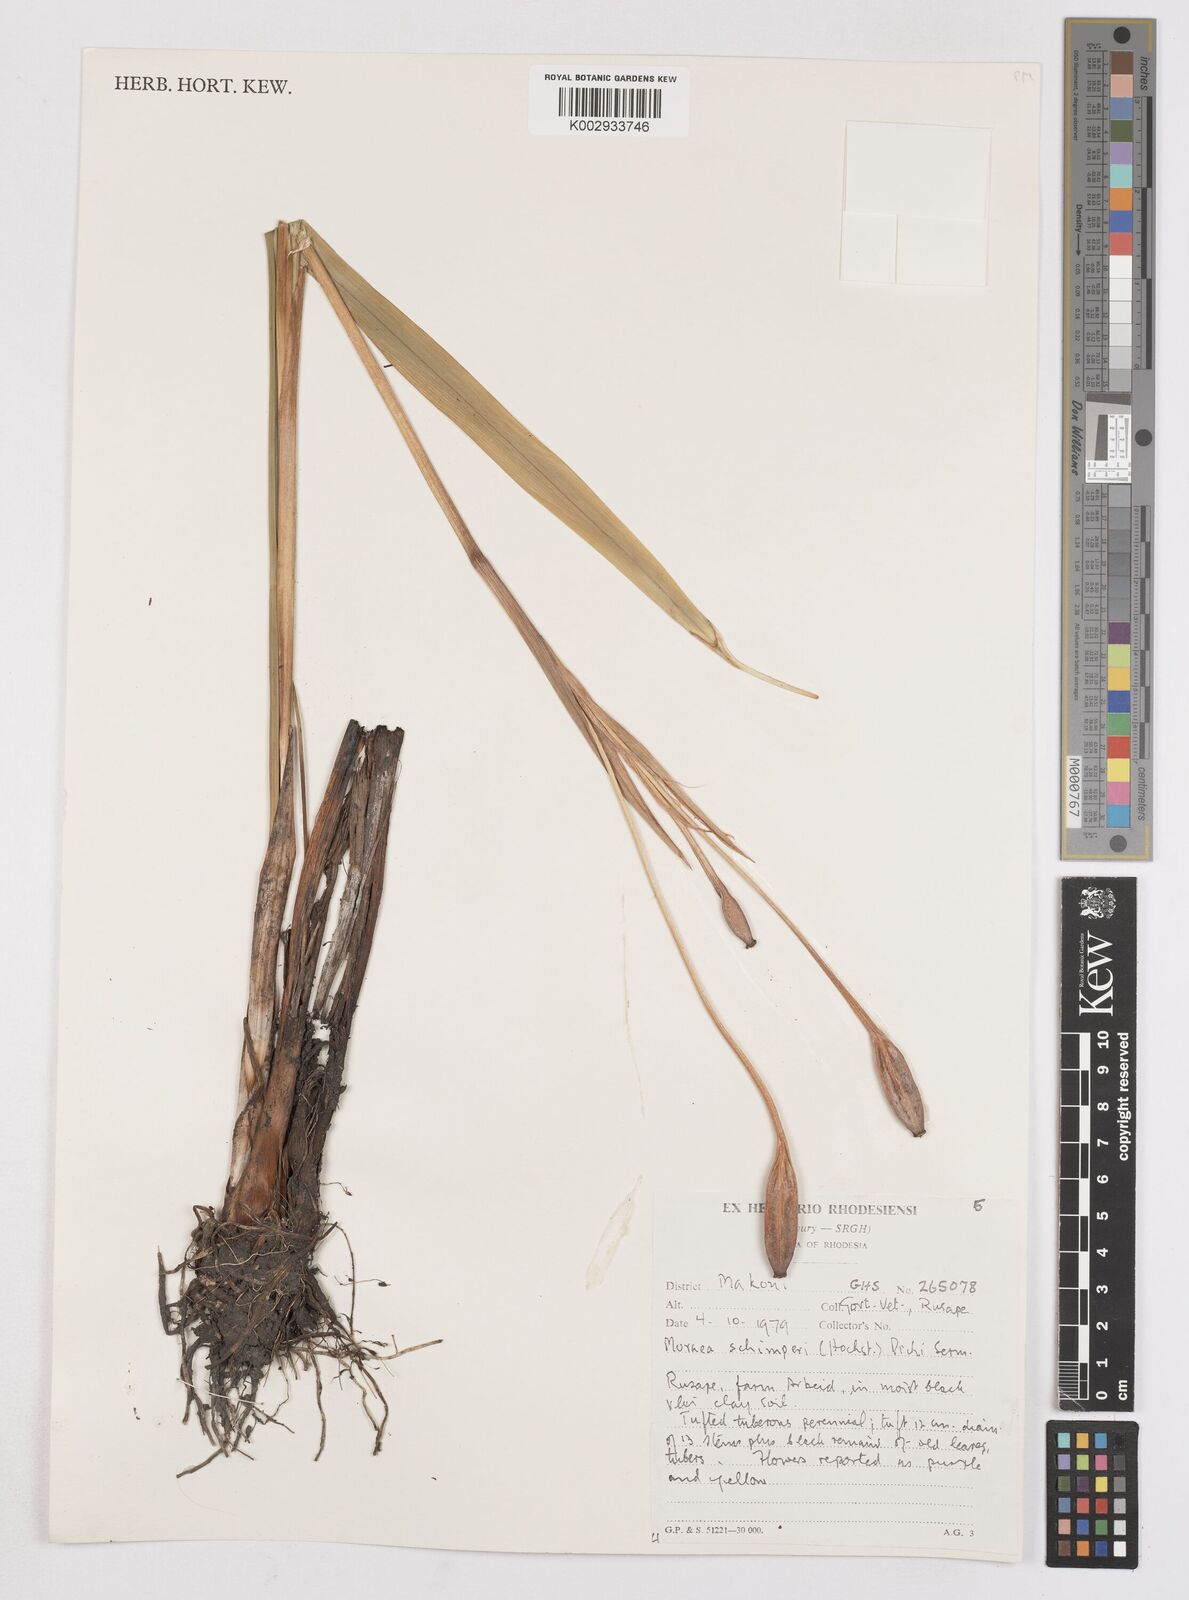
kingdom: Plantae
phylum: Tracheophyta
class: Liliopsida
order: Asparagales
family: Iridaceae
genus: Moraea
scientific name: Moraea schimperi
